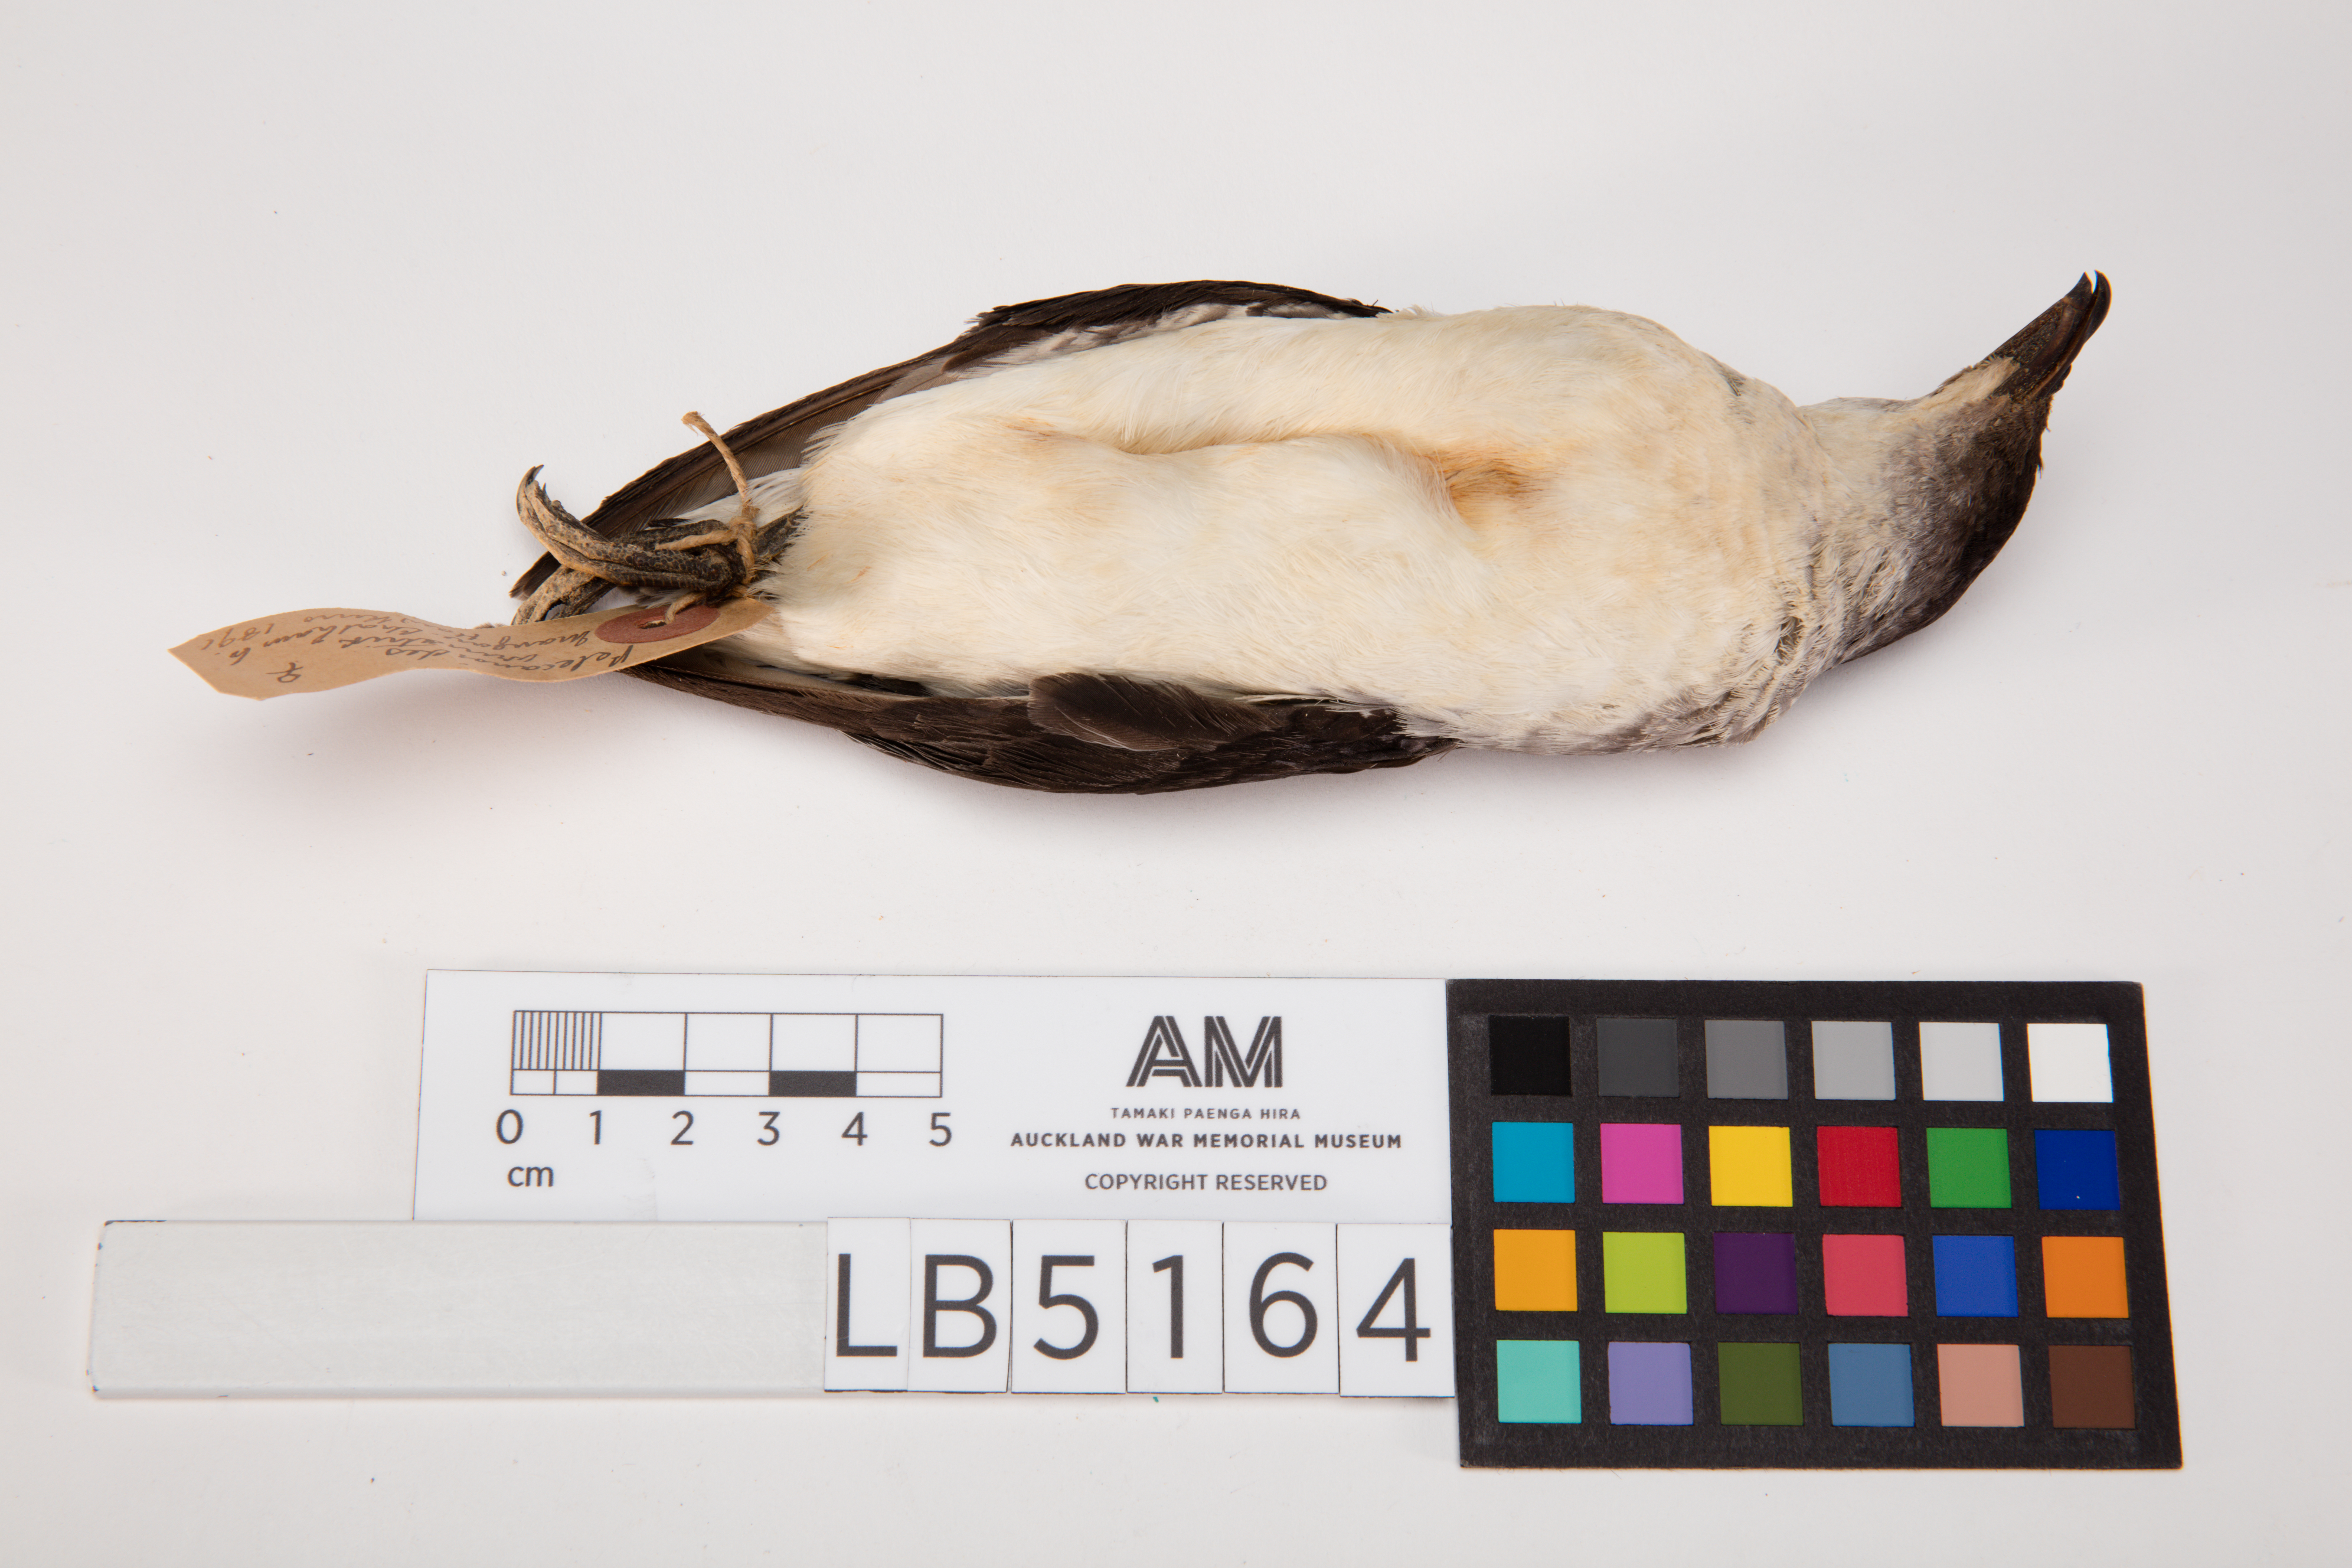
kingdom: Animalia
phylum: Chordata
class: Aves
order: Procellariiformes
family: Pelecanoididae
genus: Pelecanoides
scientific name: Pelecanoides urinatrix
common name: Common diving-petrel
